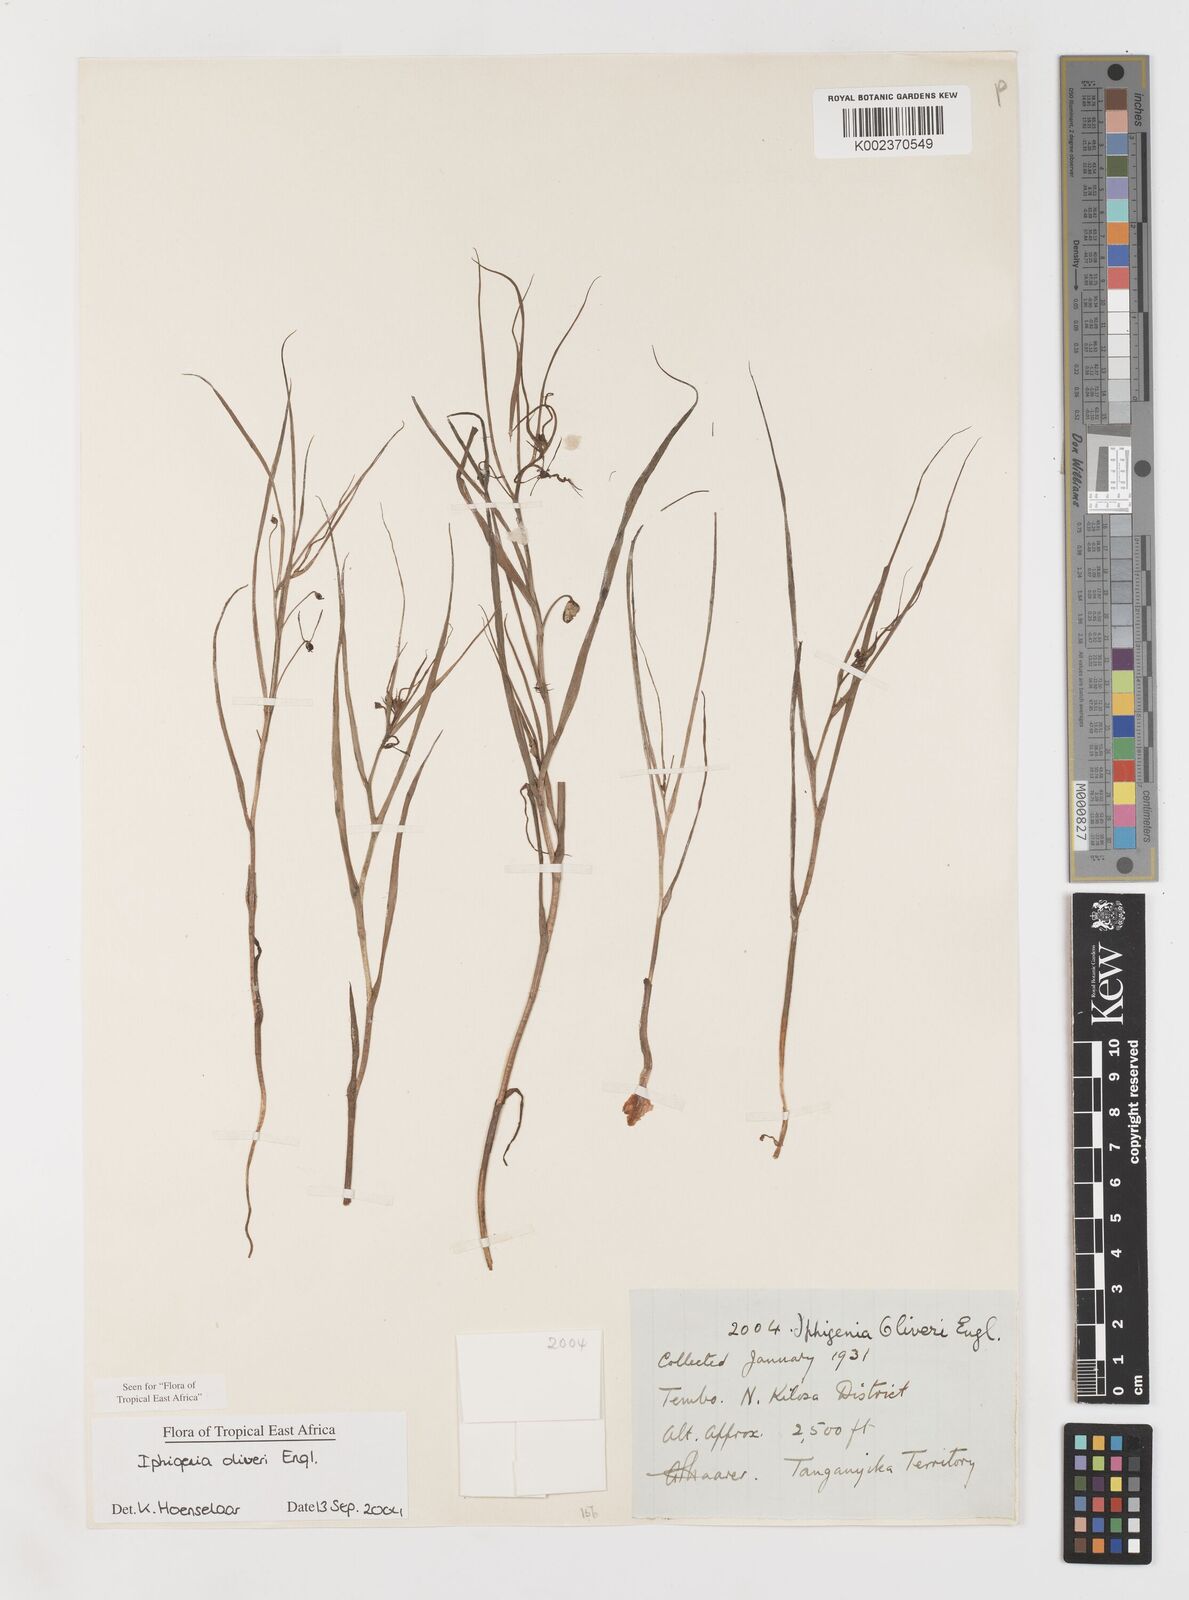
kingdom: Plantae
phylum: Tracheophyta
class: Liliopsida
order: Liliales
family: Colchicaceae
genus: Iphigenia
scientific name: Iphigenia oliveri
